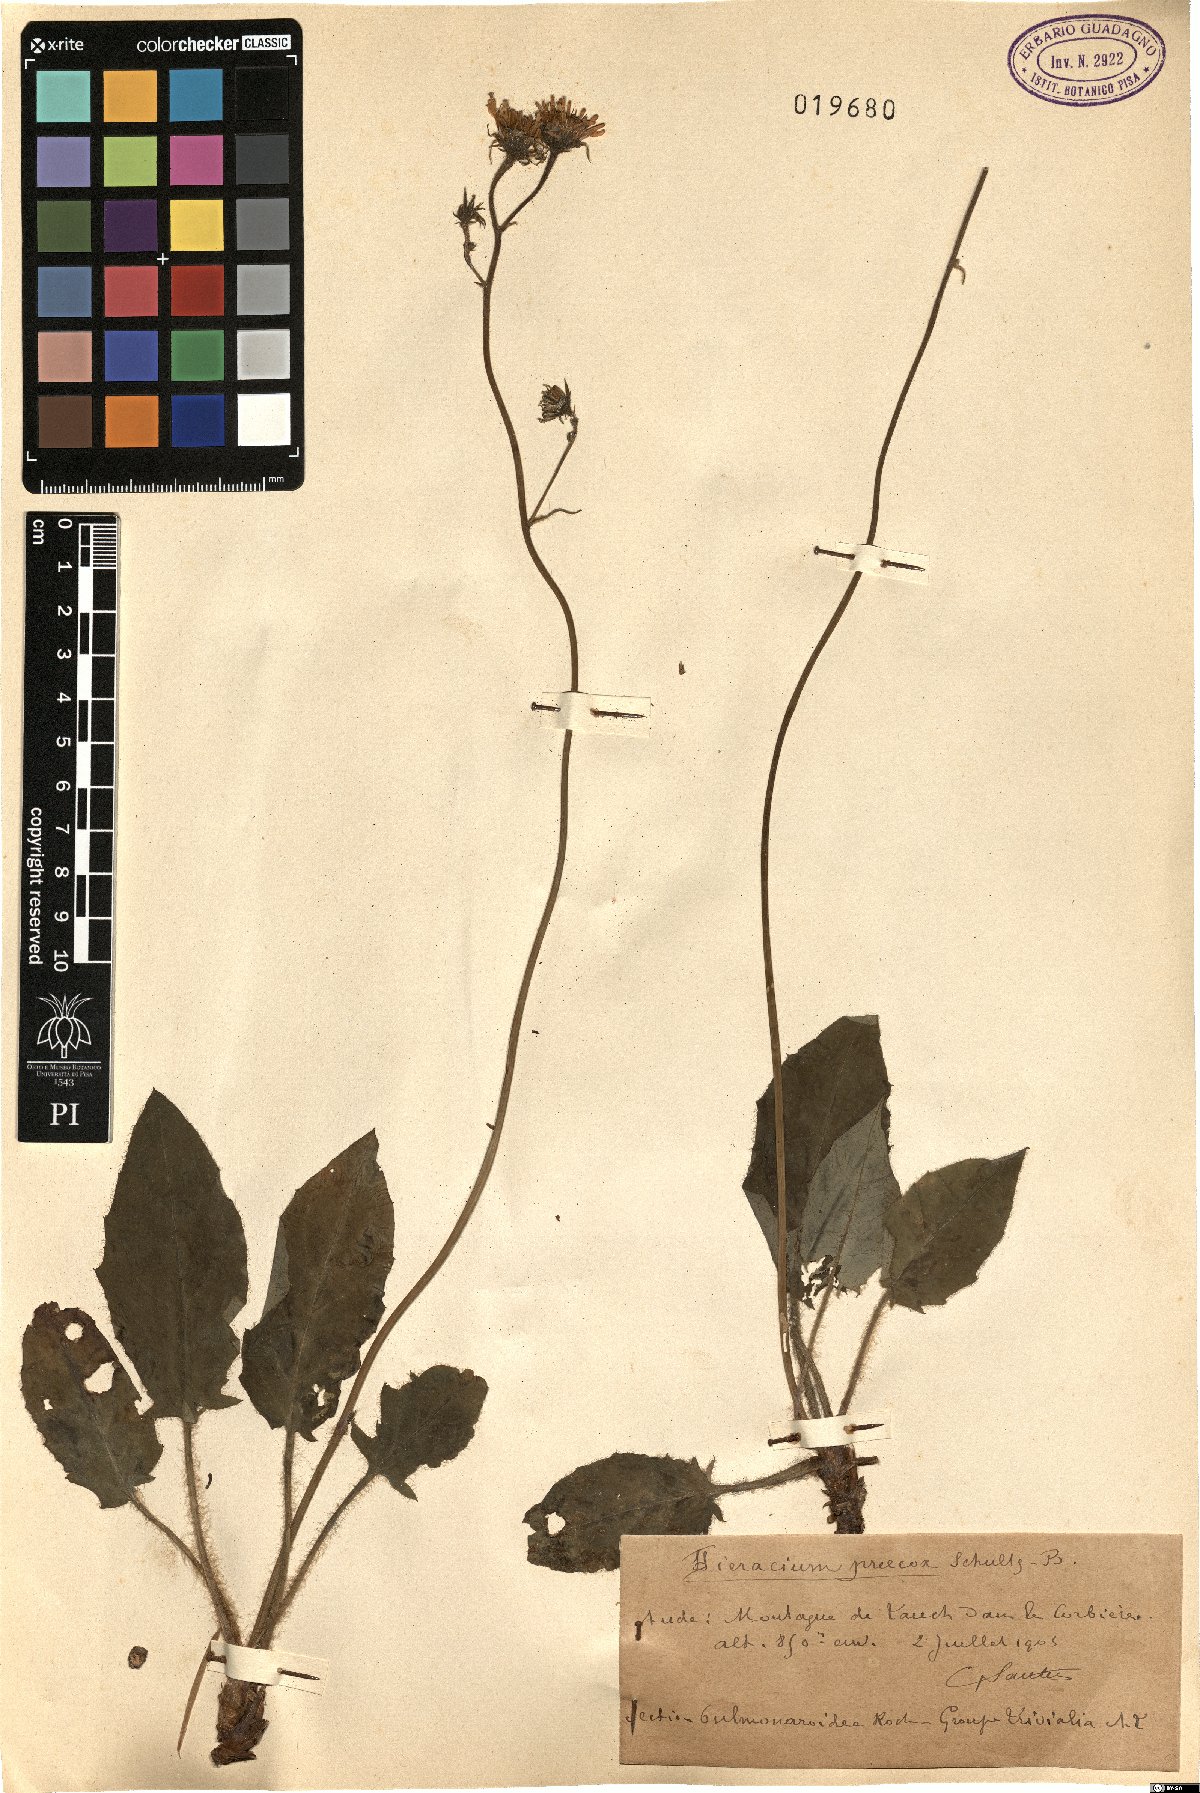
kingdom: Plantae
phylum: Tracheophyta
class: Magnoliopsida
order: Asterales
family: Asteraceae
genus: Hieracium
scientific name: Hieracium glaucinum
